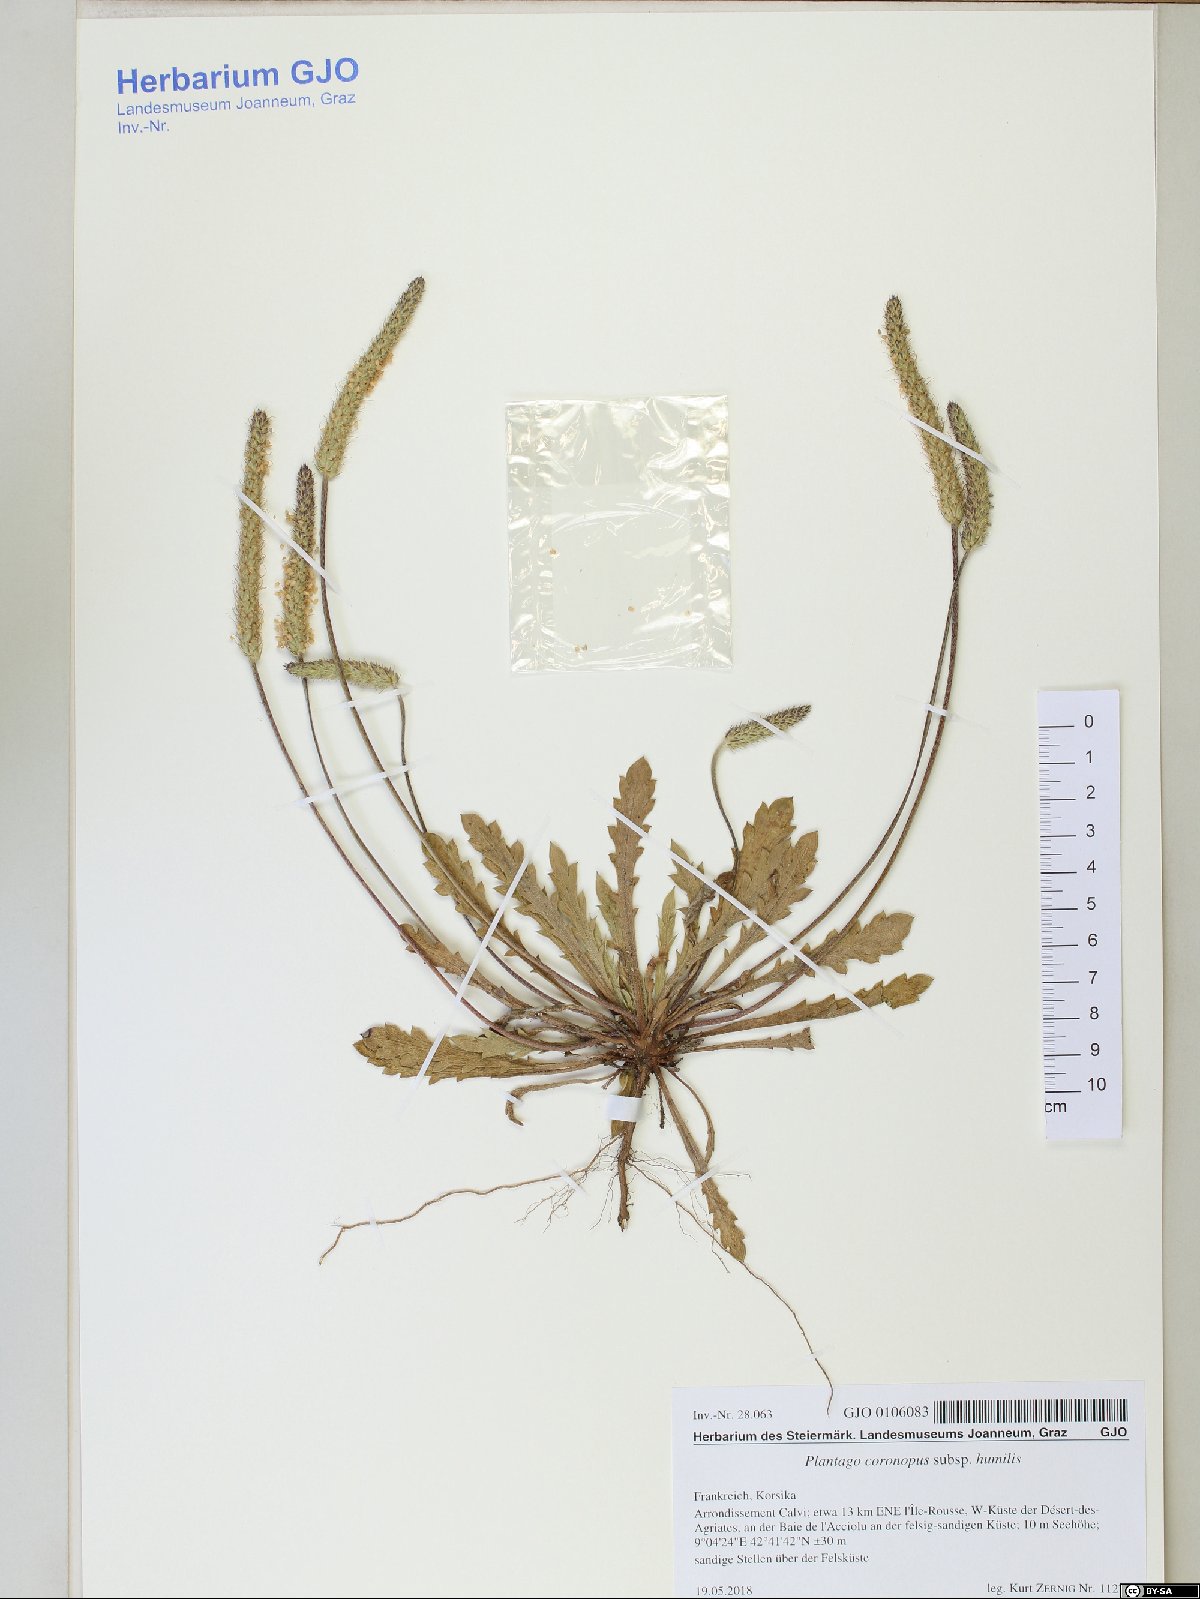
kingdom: Plantae
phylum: Tracheophyta
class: Magnoliopsida
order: Lamiales
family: Plantaginaceae
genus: Plantago
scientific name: Plantago macrorhiza
